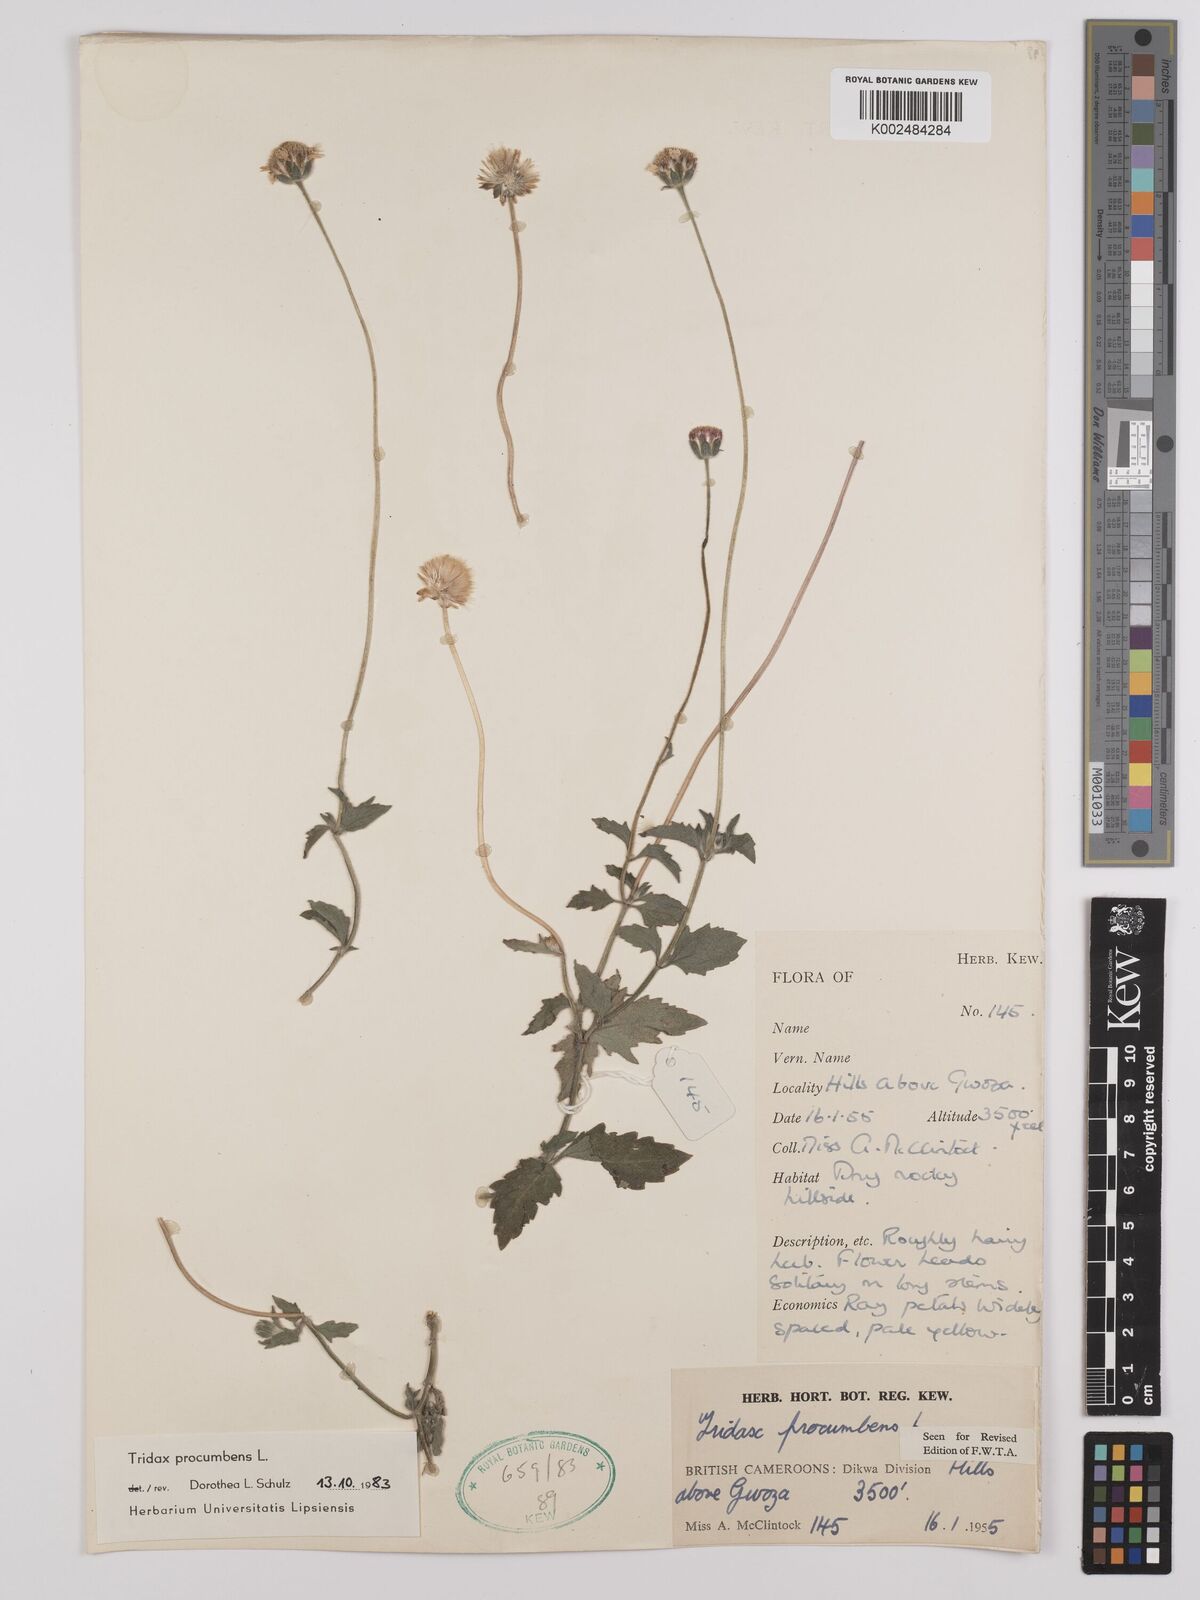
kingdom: Plantae
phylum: Tracheophyta
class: Magnoliopsida
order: Asterales
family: Asteraceae
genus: Tridax
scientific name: Tridax procumbens
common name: Coatbuttons
